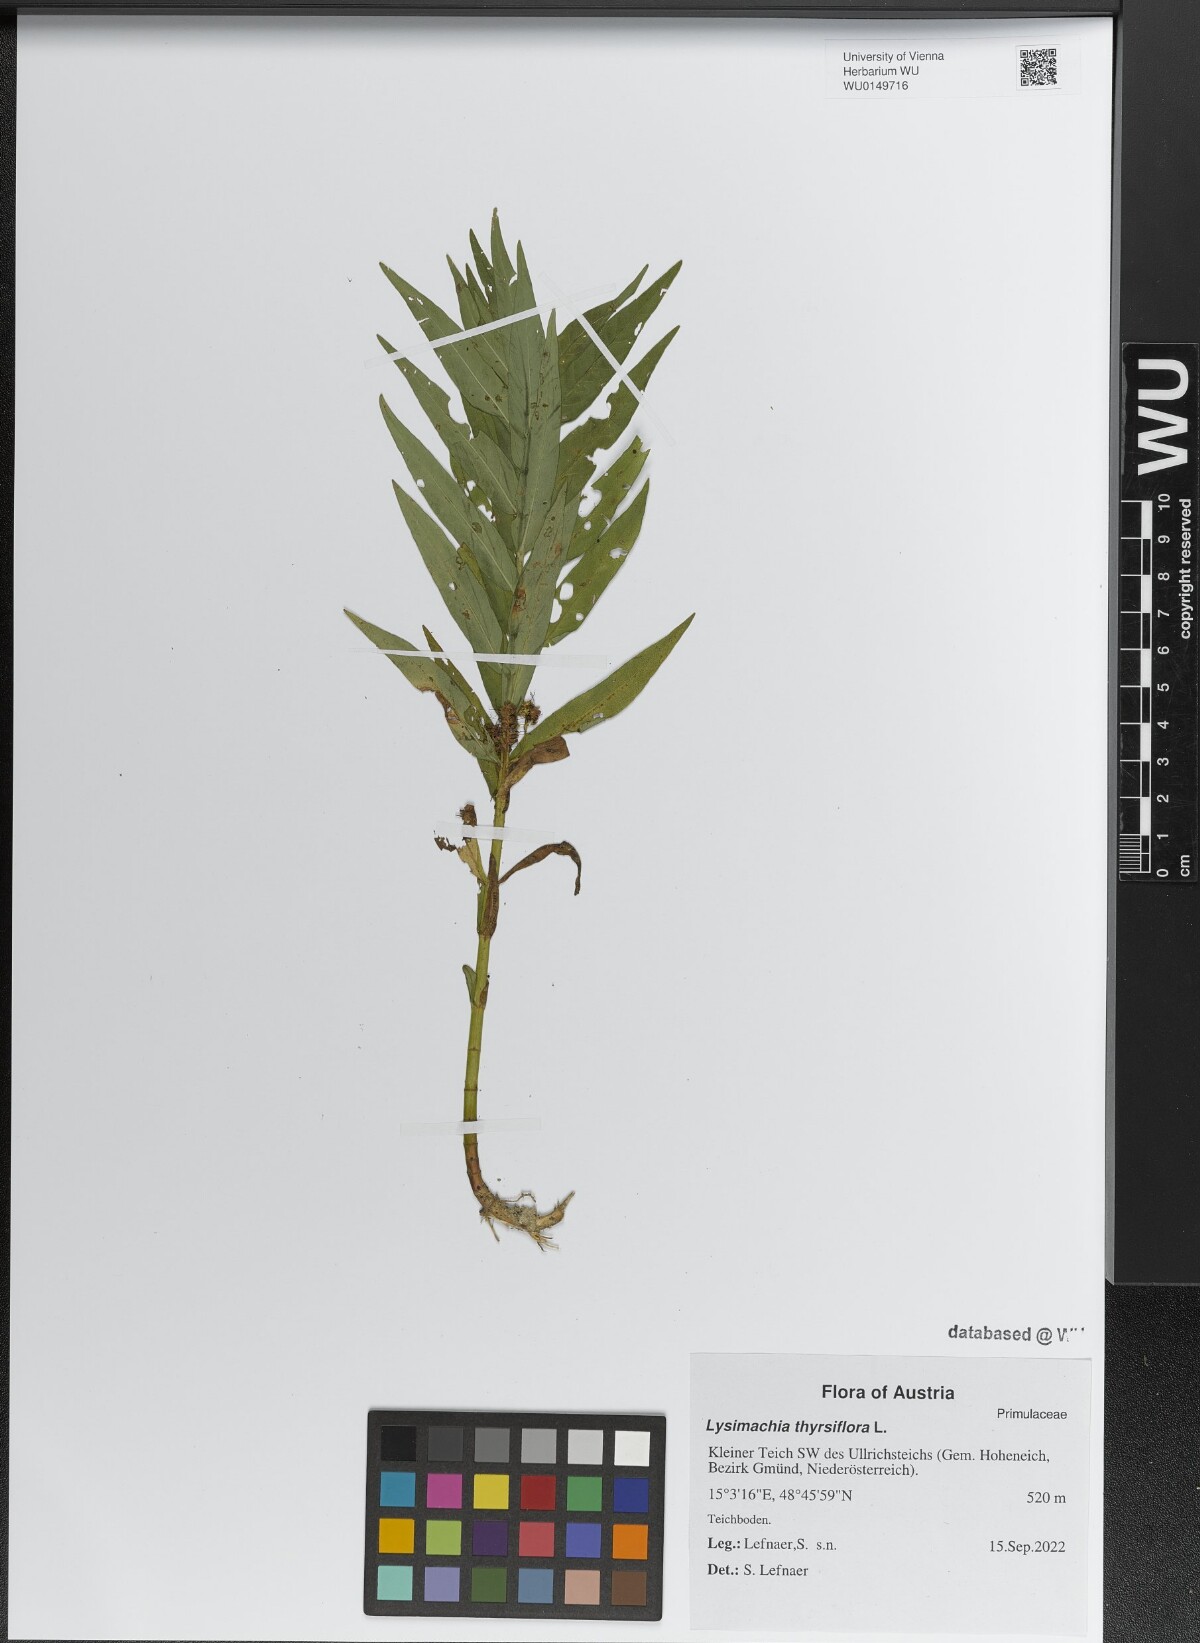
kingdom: Plantae
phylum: Tracheophyta
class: Magnoliopsida
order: Ericales
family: Primulaceae
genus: Lysimachia
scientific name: Lysimachia thyrsiflora
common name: Tufted loosestrife
